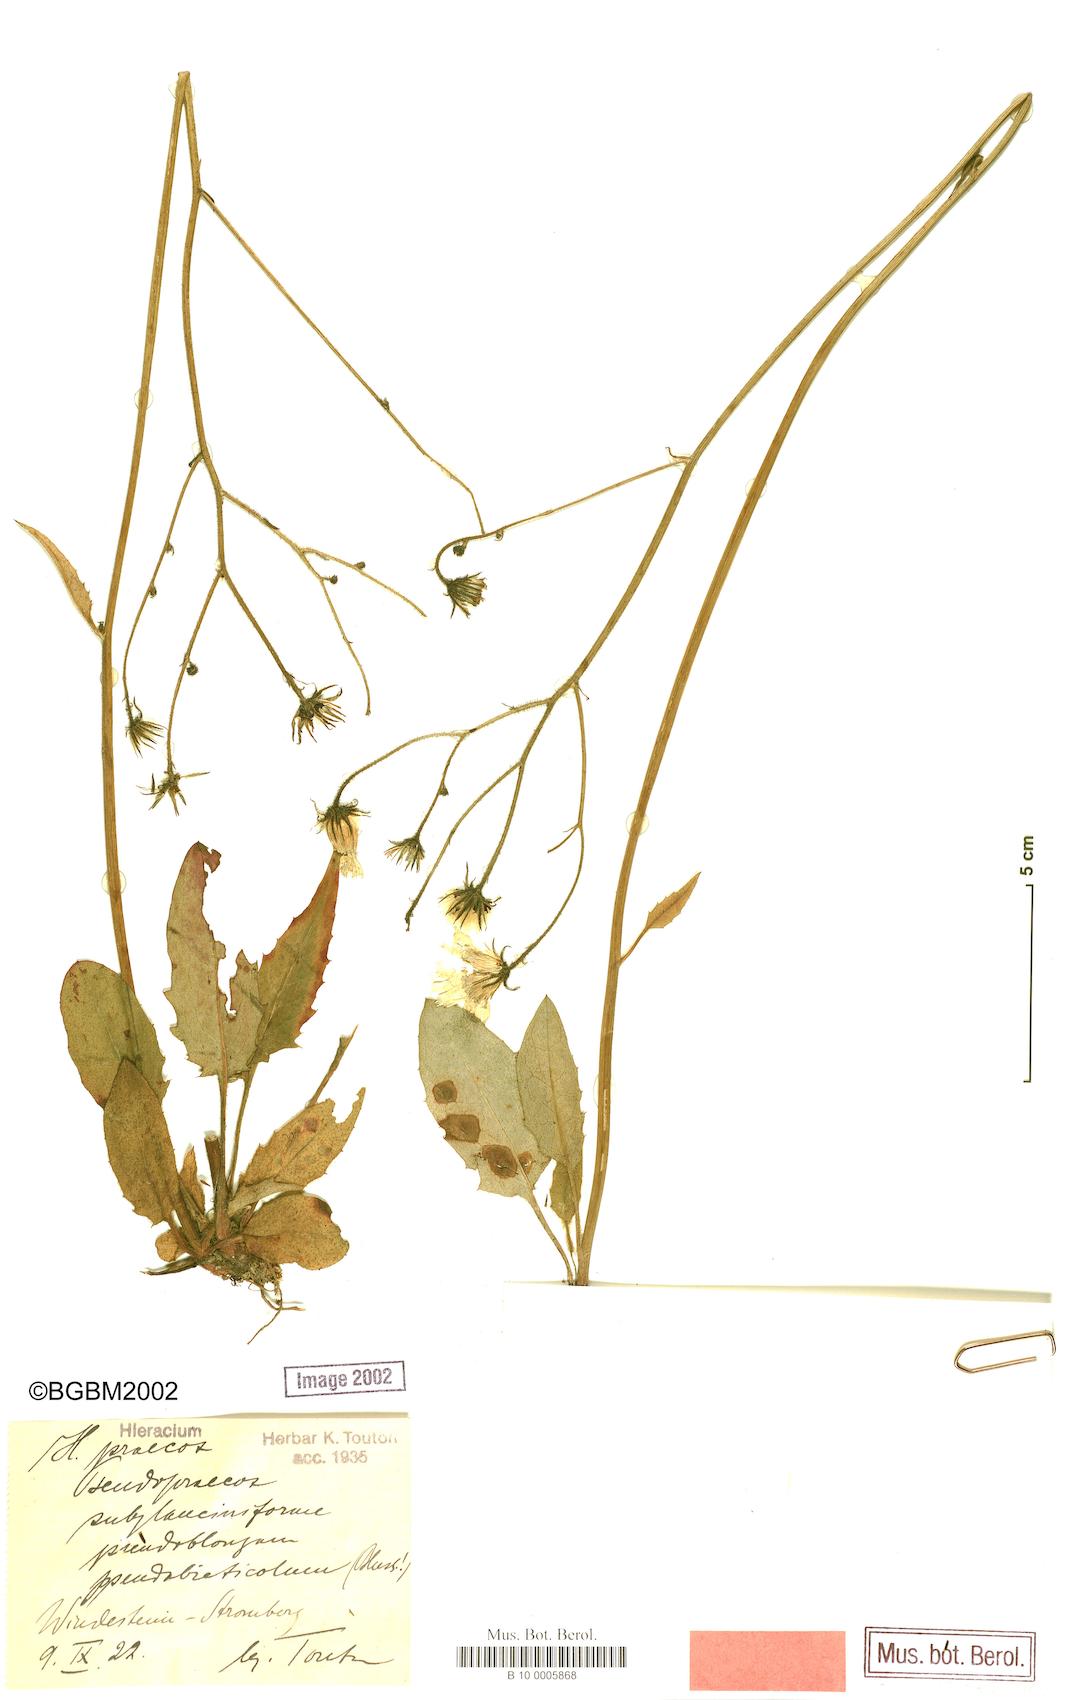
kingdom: Plantae
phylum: Tracheophyta
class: Magnoliopsida
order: Asterales
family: Asteraceae
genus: Hieracium
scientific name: Hieracium praecox
